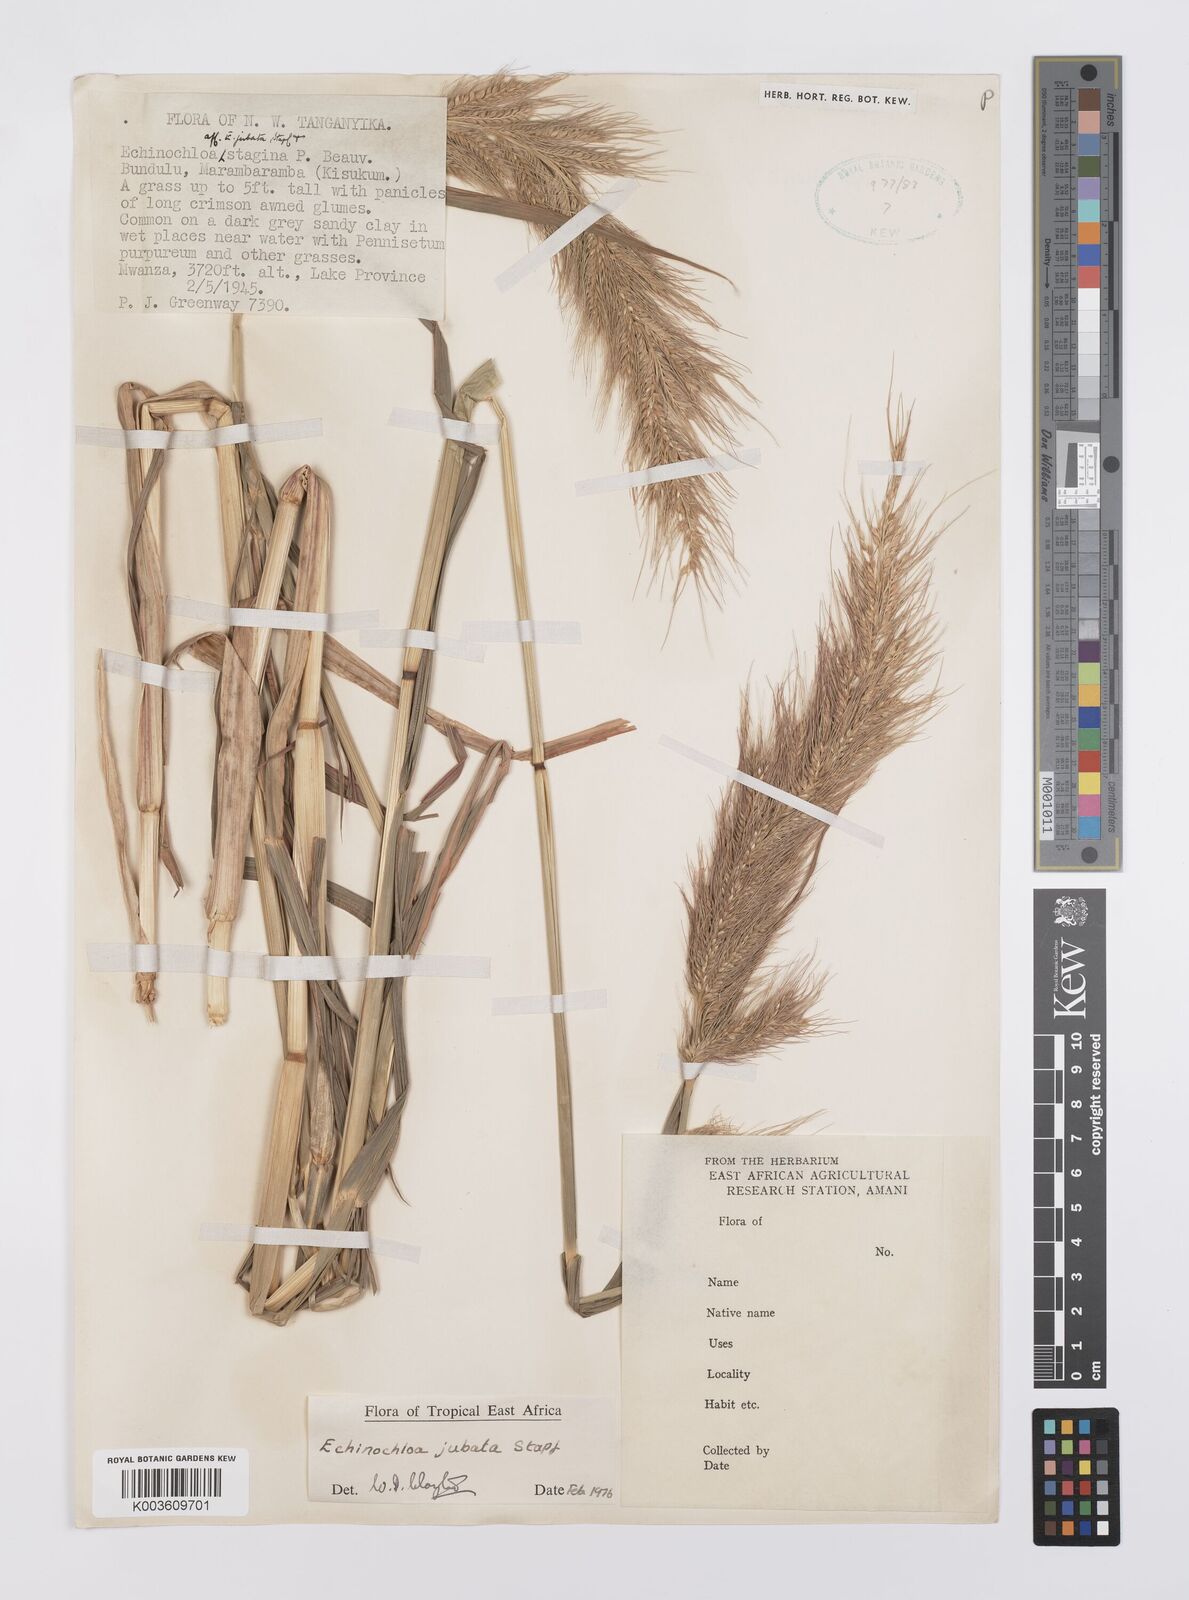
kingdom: Plantae
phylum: Tracheophyta
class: Liliopsida
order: Poales
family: Poaceae
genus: Echinochloa
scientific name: Echinochloa jubata
